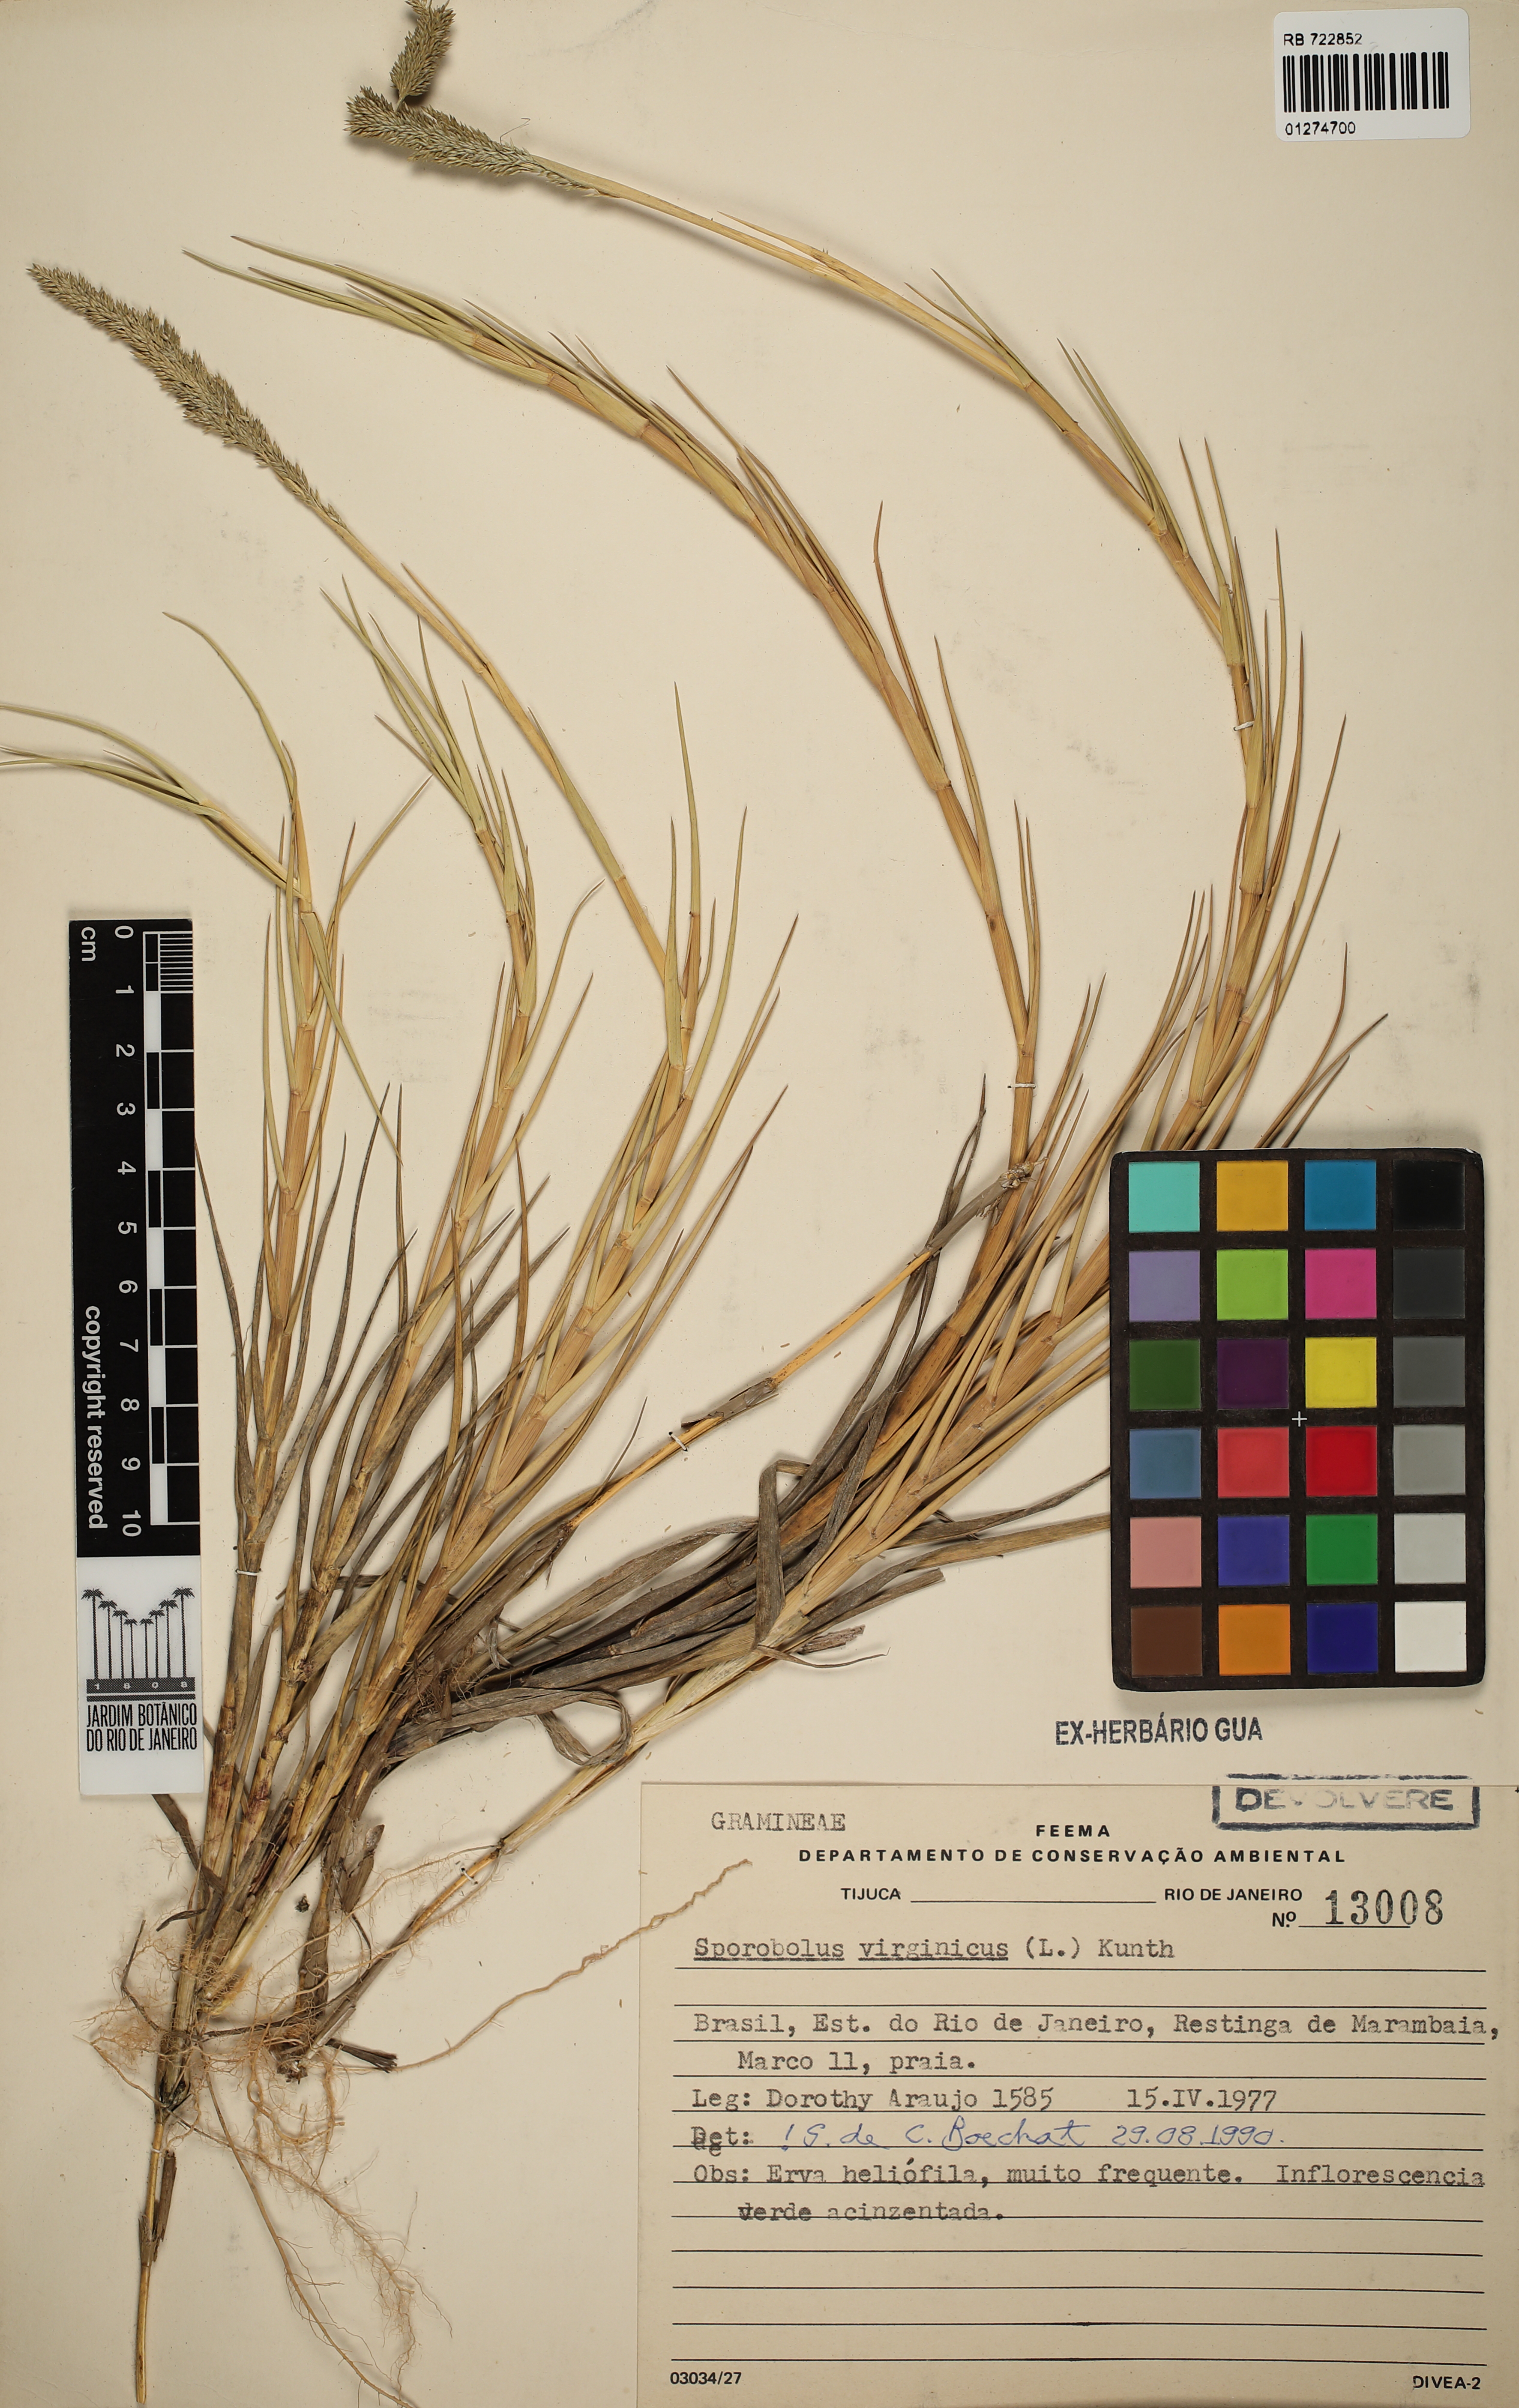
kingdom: Plantae
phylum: Tracheophyta
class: Liliopsida
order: Poales
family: Poaceae
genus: Sporobolus
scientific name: Sporobolus virginicus
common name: Beach dropseed
